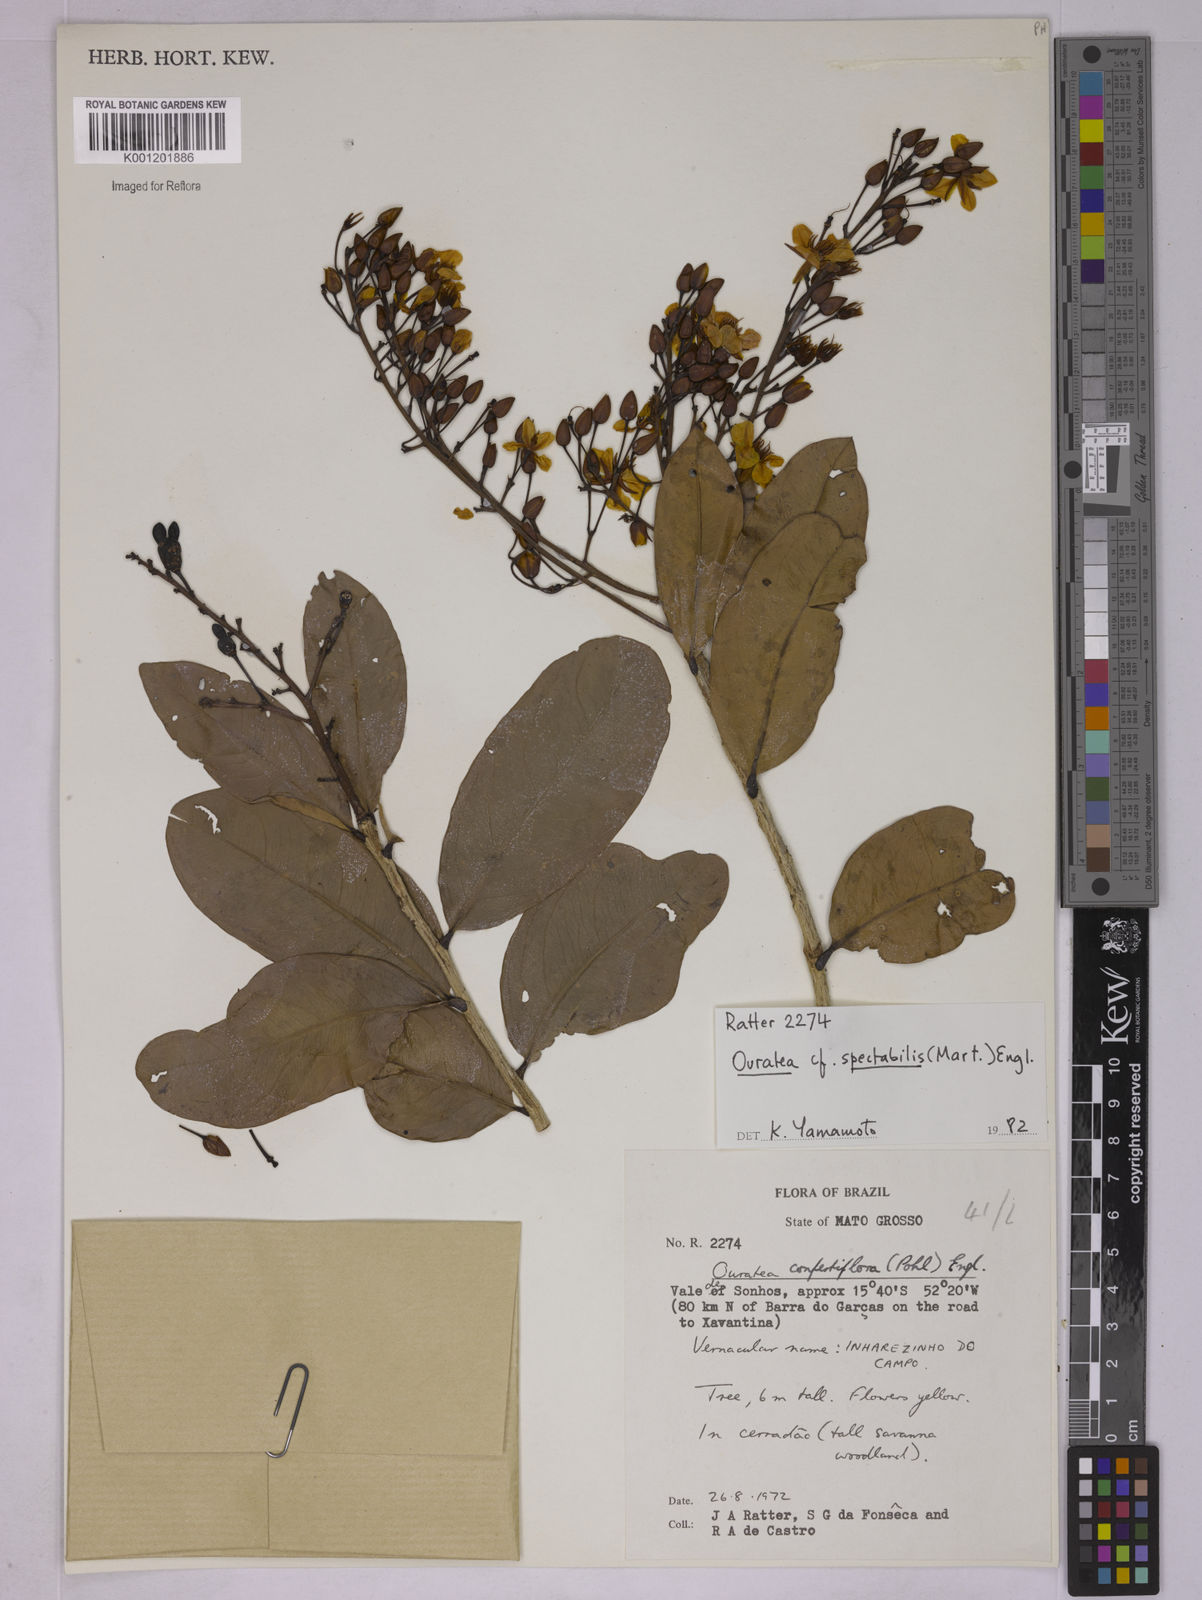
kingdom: Plantae
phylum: Tracheophyta
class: Magnoliopsida
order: Malpighiales
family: Ochnaceae
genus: Ouratea
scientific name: Ouratea spectabilis
